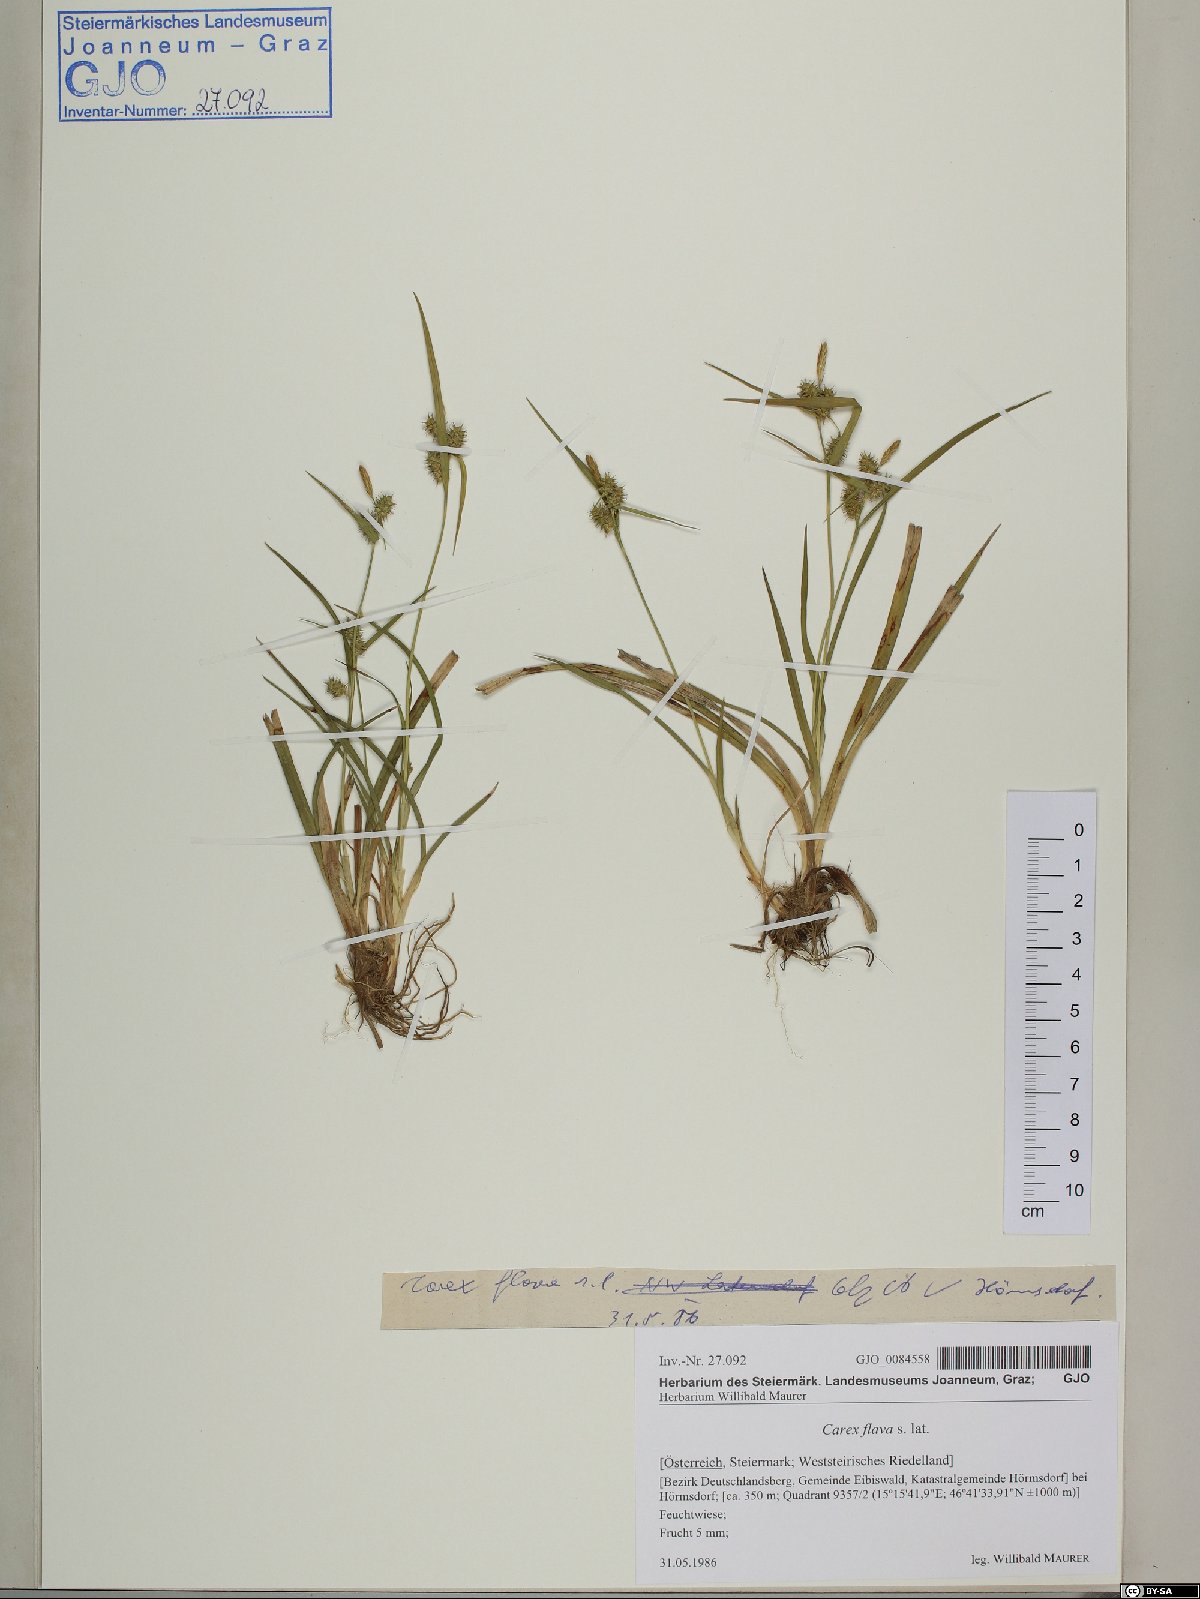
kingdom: Plantae
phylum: Tracheophyta
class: Liliopsida
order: Poales
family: Cyperaceae
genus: Carex
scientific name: Carex flava
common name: Large yellow-sedge
